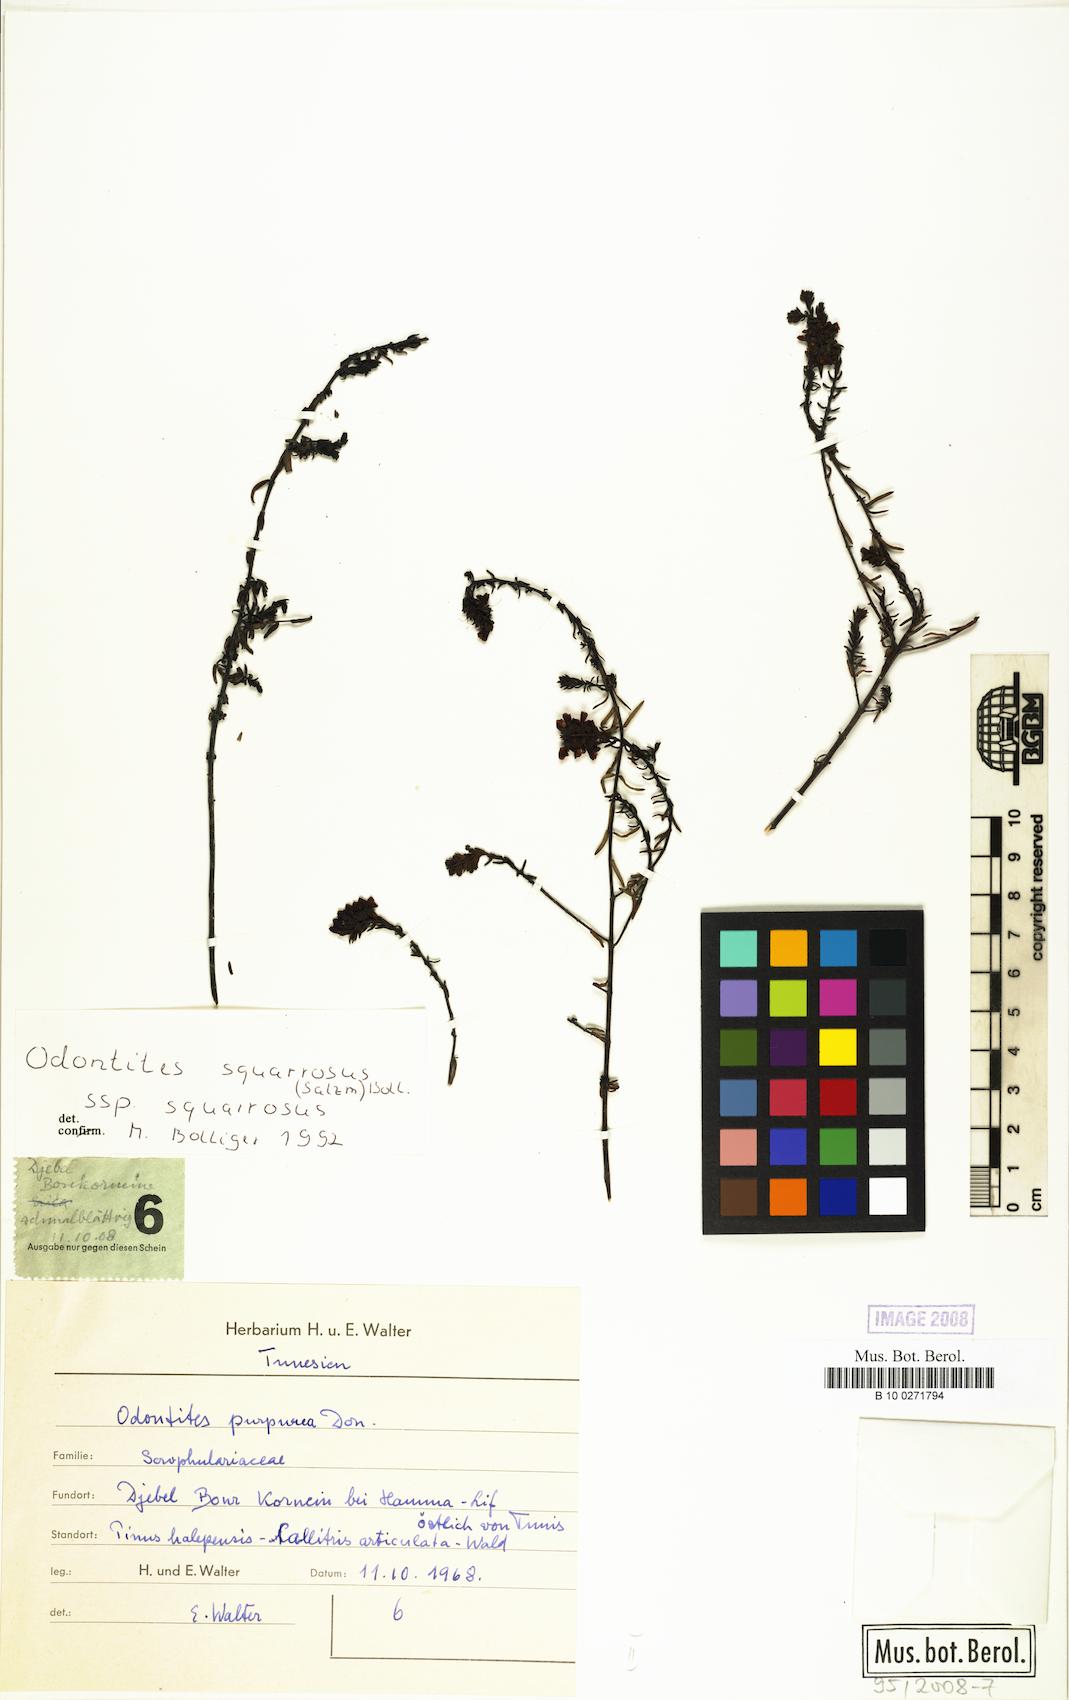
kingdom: Plantae
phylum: Tracheophyta
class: Magnoliopsida
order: Lamiales
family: Orobanchaceae
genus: Odontites
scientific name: Odontites bolligeri
